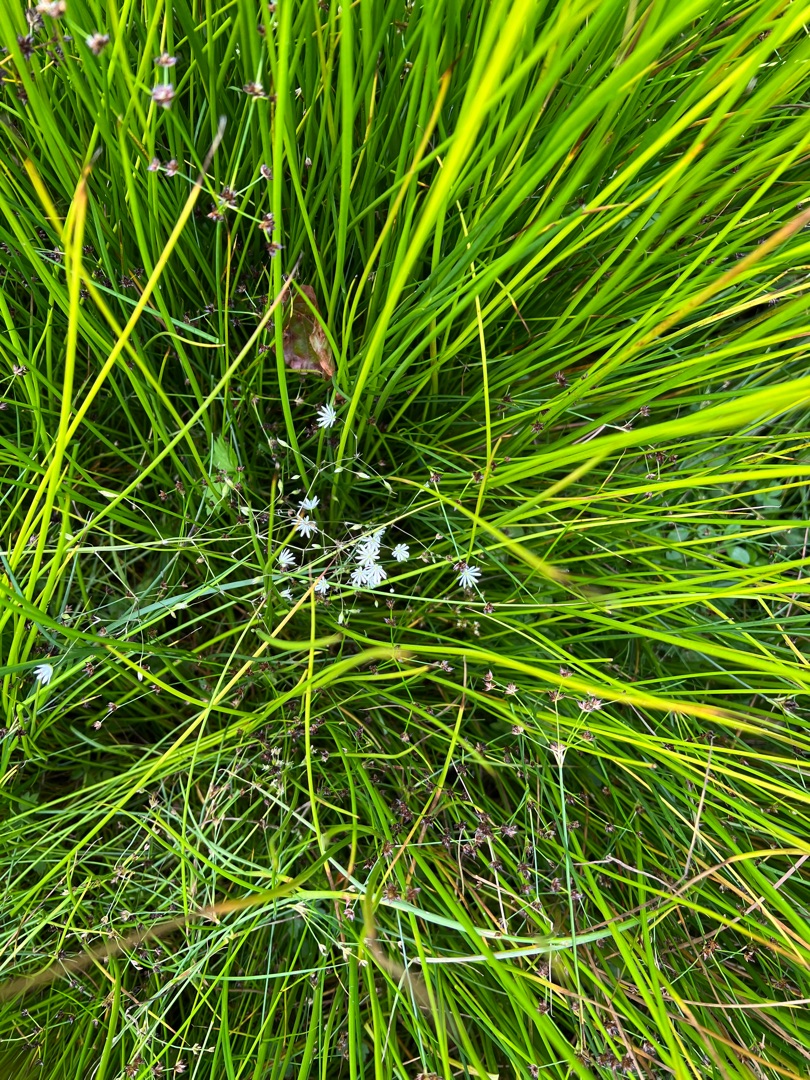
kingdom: Plantae
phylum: Tracheophyta
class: Magnoliopsida
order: Caryophyllales
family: Caryophyllaceae
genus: Stellaria
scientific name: Stellaria graminea
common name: Græsbladet fladstjerne
